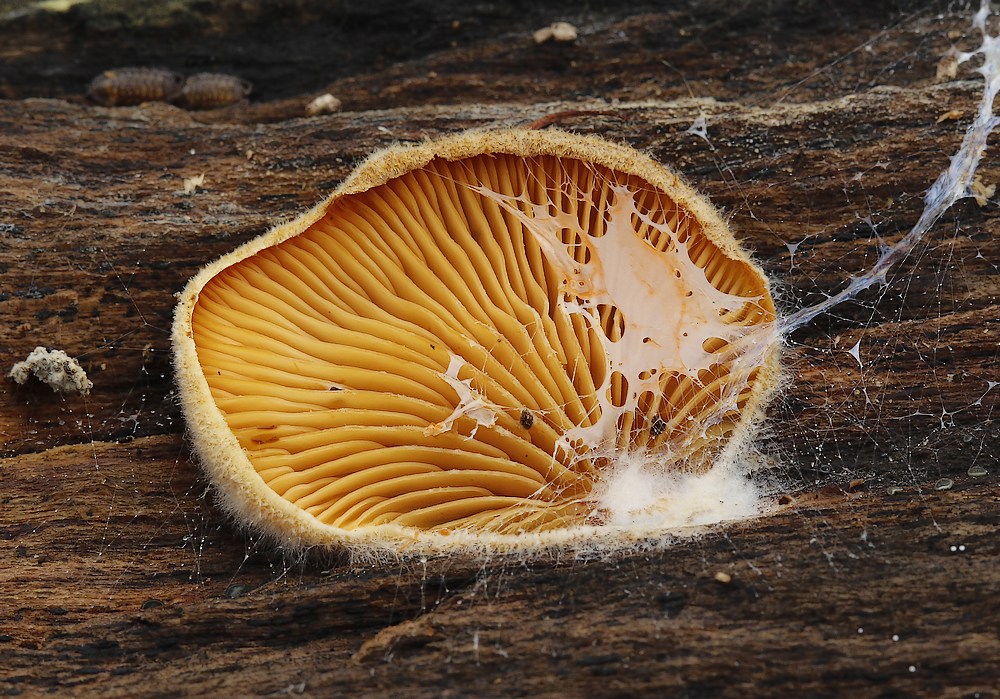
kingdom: Fungi
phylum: Basidiomycota
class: Agaricomycetes
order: Agaricales
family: Phyllotopsidaceae
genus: Phyllotopsis
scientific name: Phyllotopsis nidulans
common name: okkerblad
